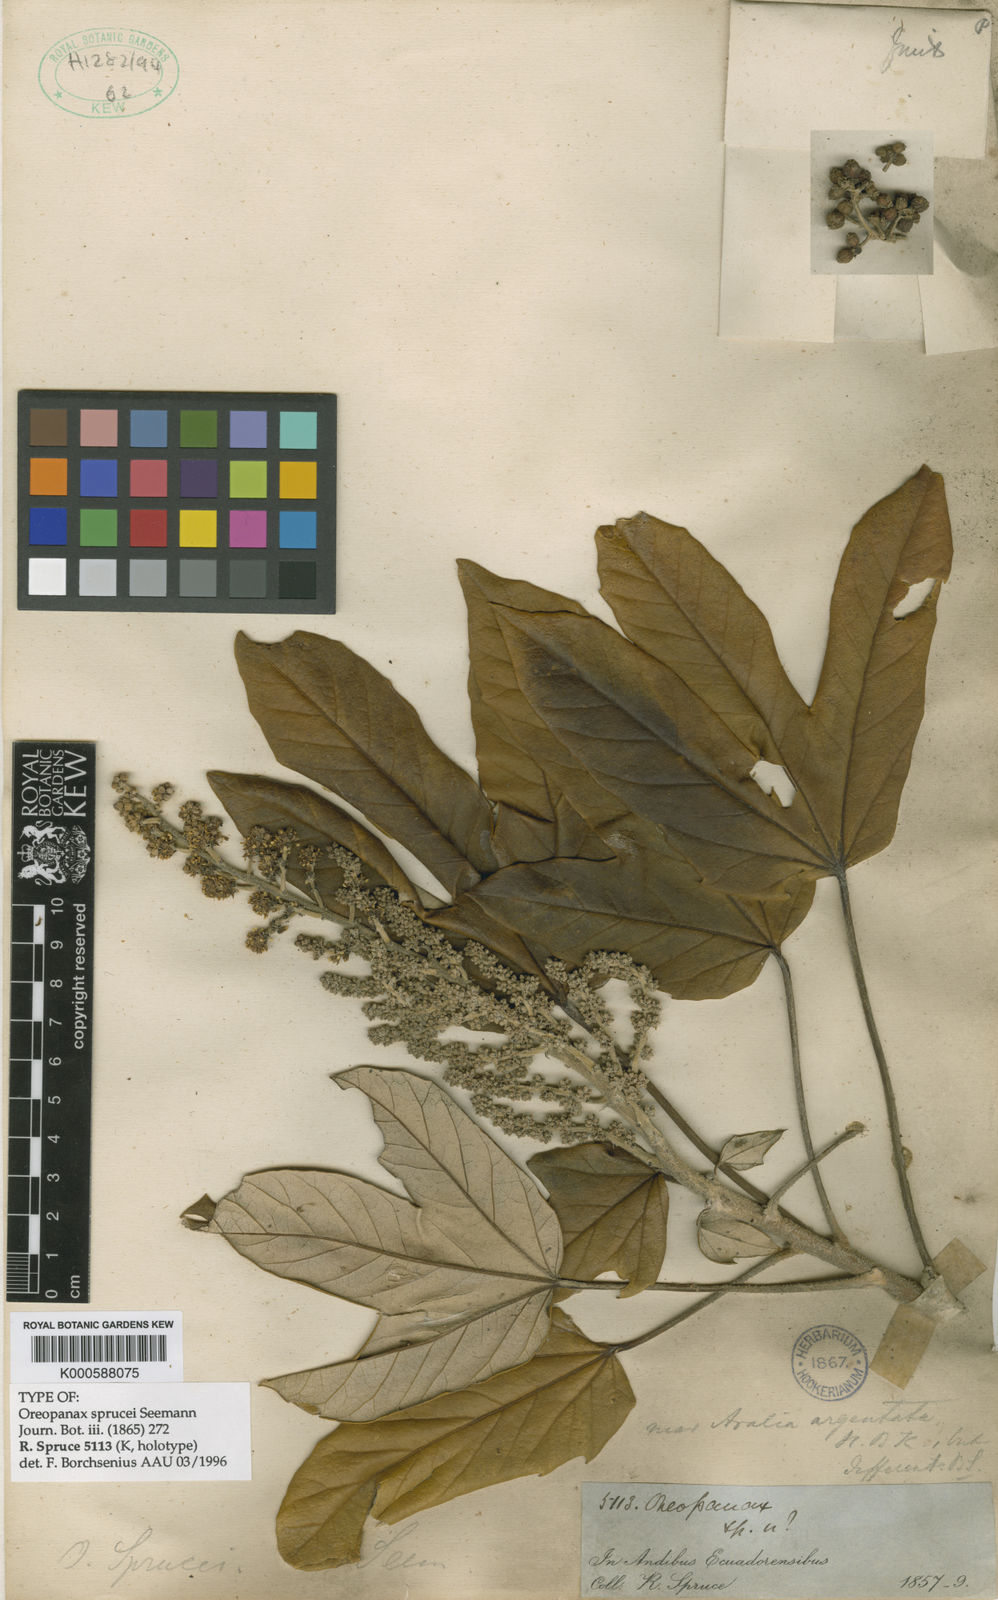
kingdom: Plantae
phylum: Tracheophyta
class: Magnoliopsida
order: Apiales
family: Araliaceae
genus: Oreopanax
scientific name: Oreopanax
